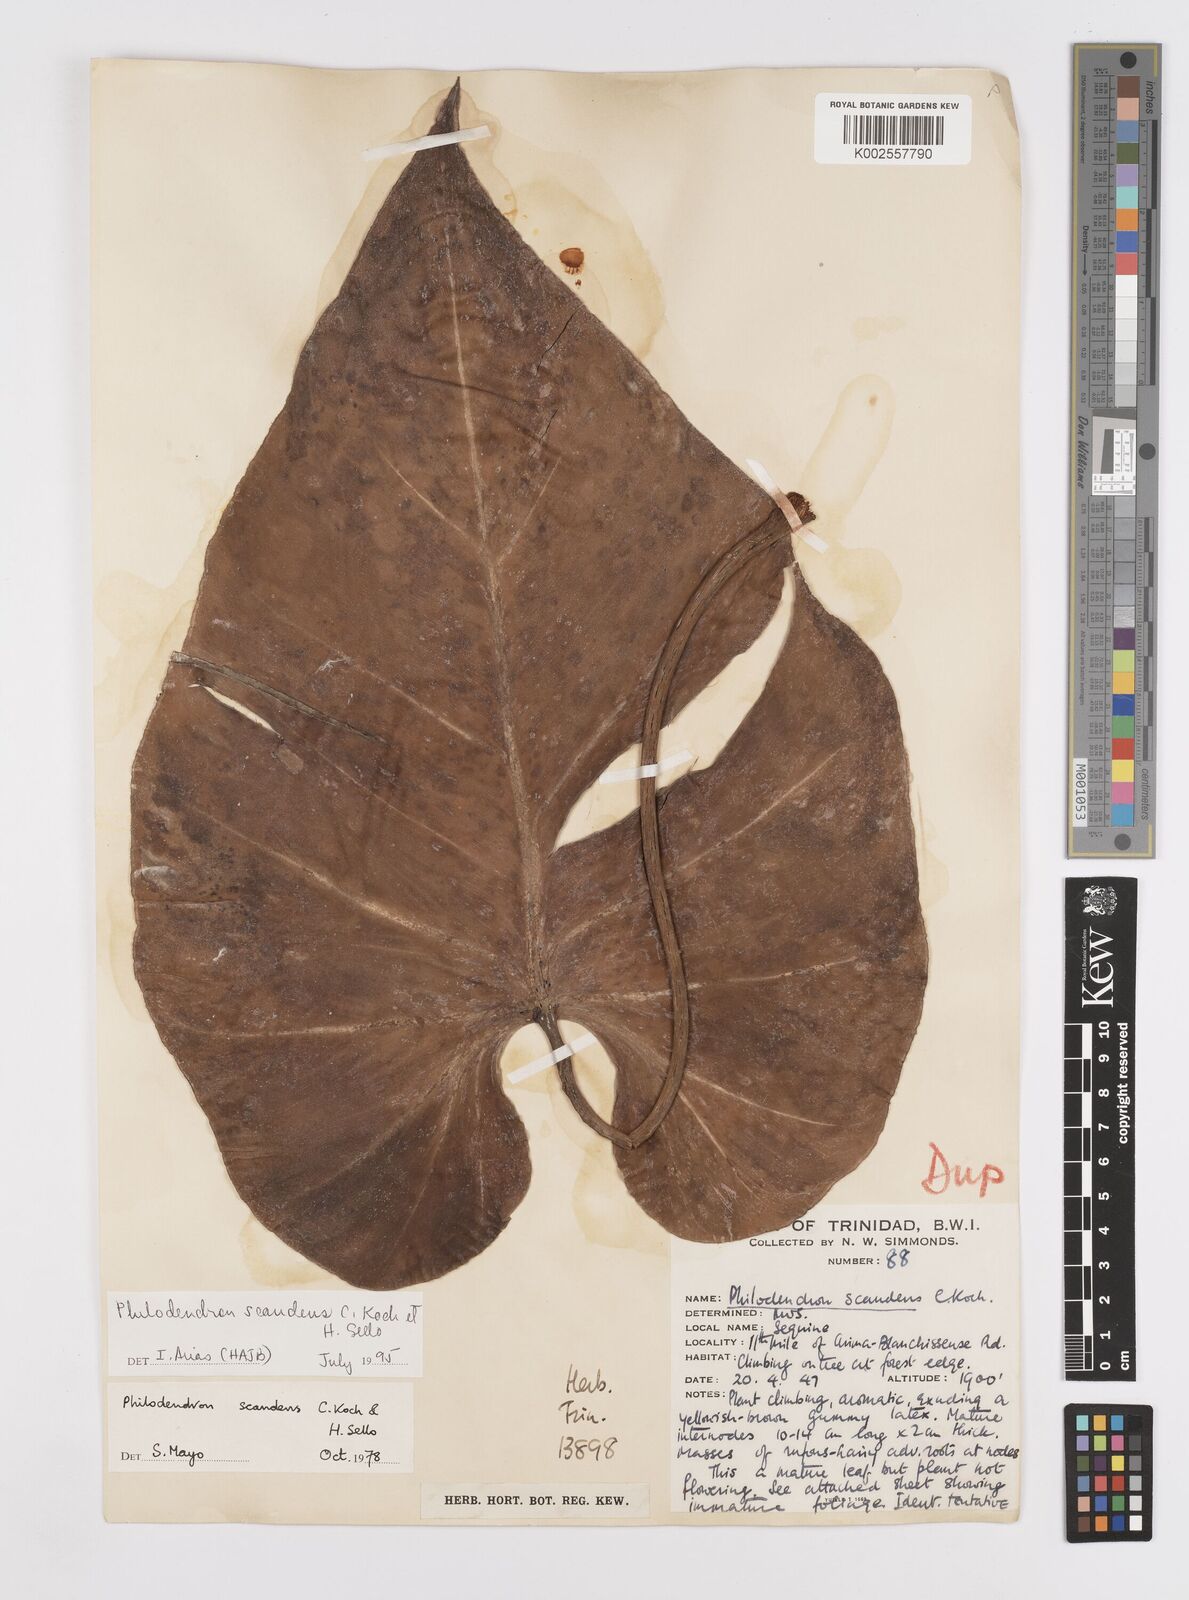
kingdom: Plantae
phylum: Tracheophyta
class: Liliopsida
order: Alismatales
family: Araceae
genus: Philodendron
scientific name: Philodendron hederaceum
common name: Vilevine
